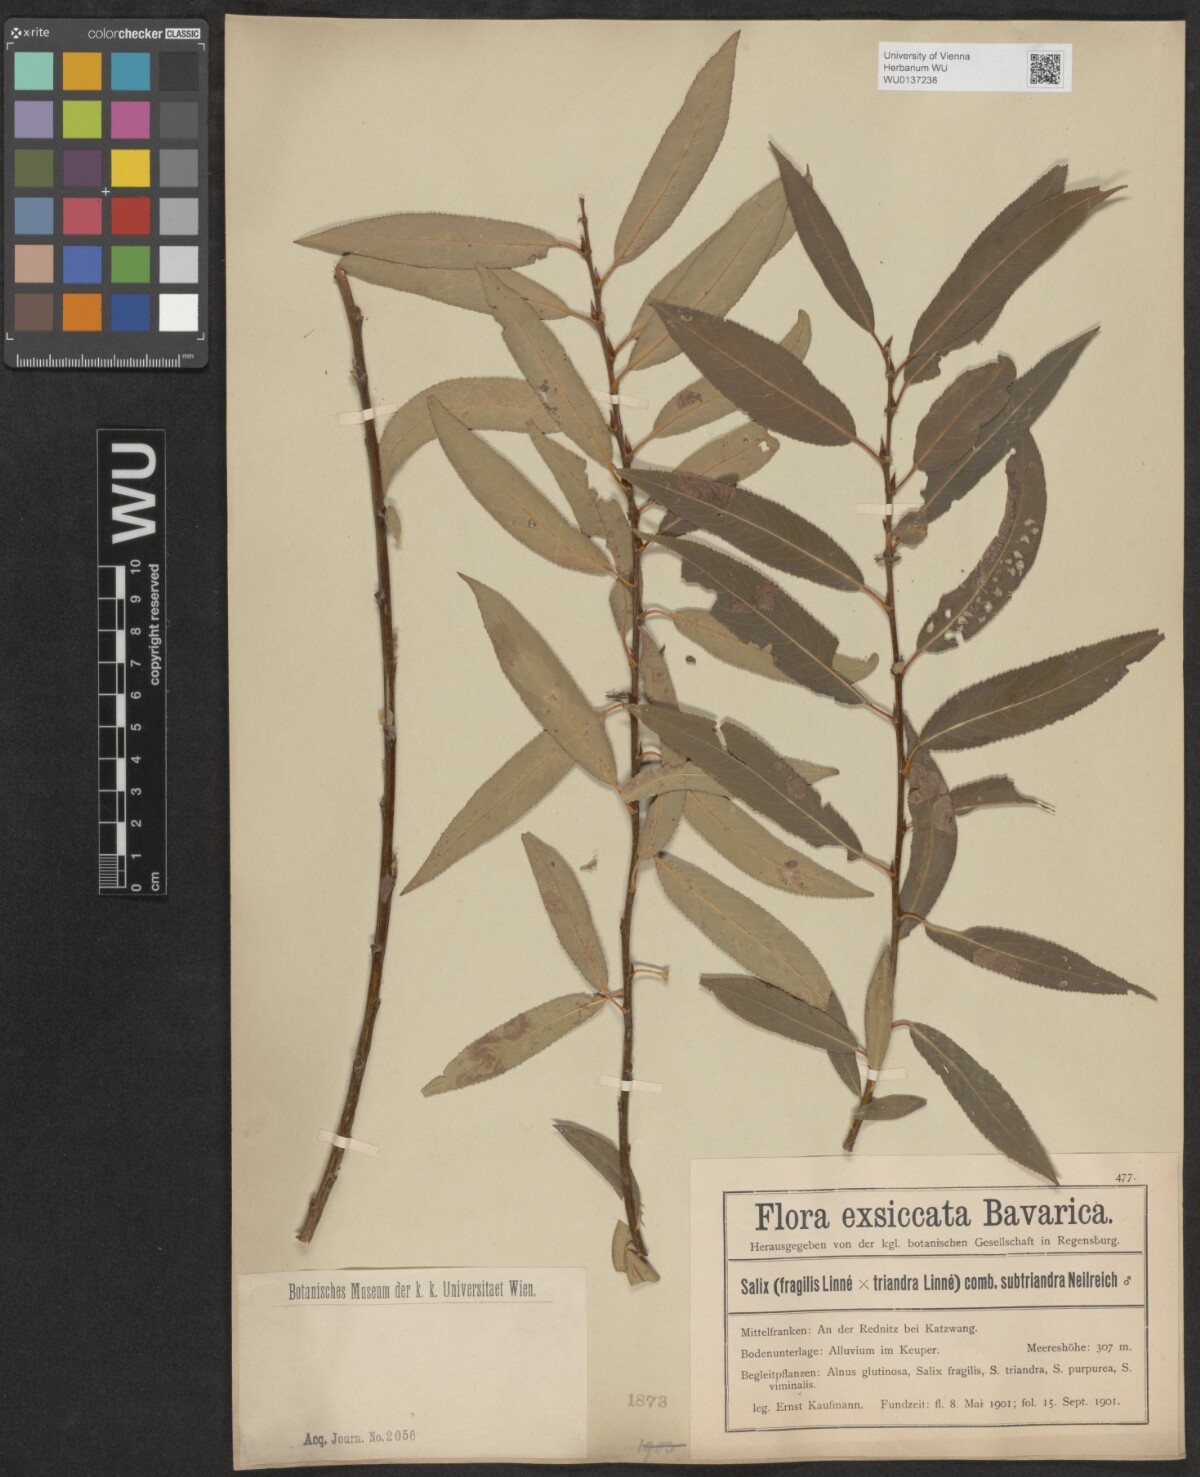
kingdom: Plantae
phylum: Tracheophyta
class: Magnoliopsida
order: Malpighiales
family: Salicaceae
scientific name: Salicaceae
